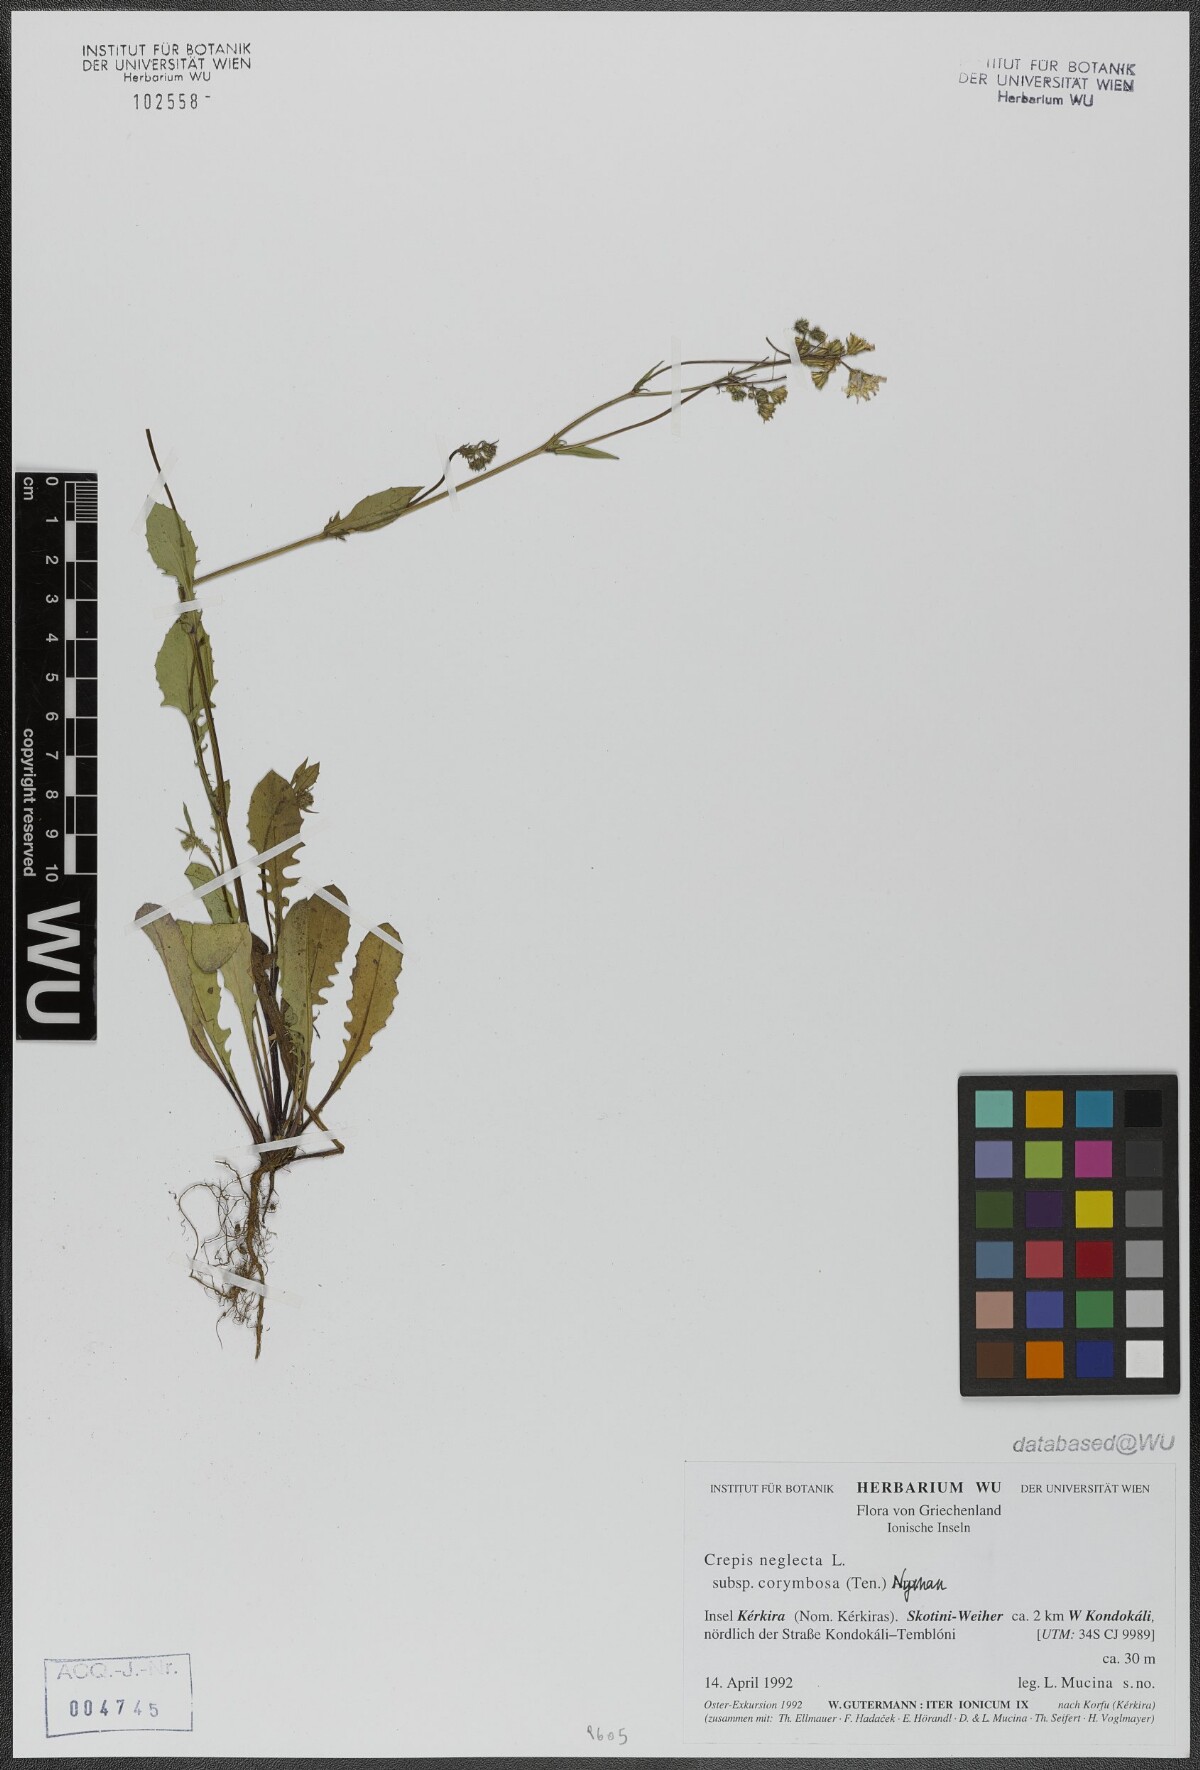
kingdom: Plantae
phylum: Tracheophyta
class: Magnoliopsida
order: Asterales
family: Asteraceae
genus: Crepis
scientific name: Crepis neglecta
